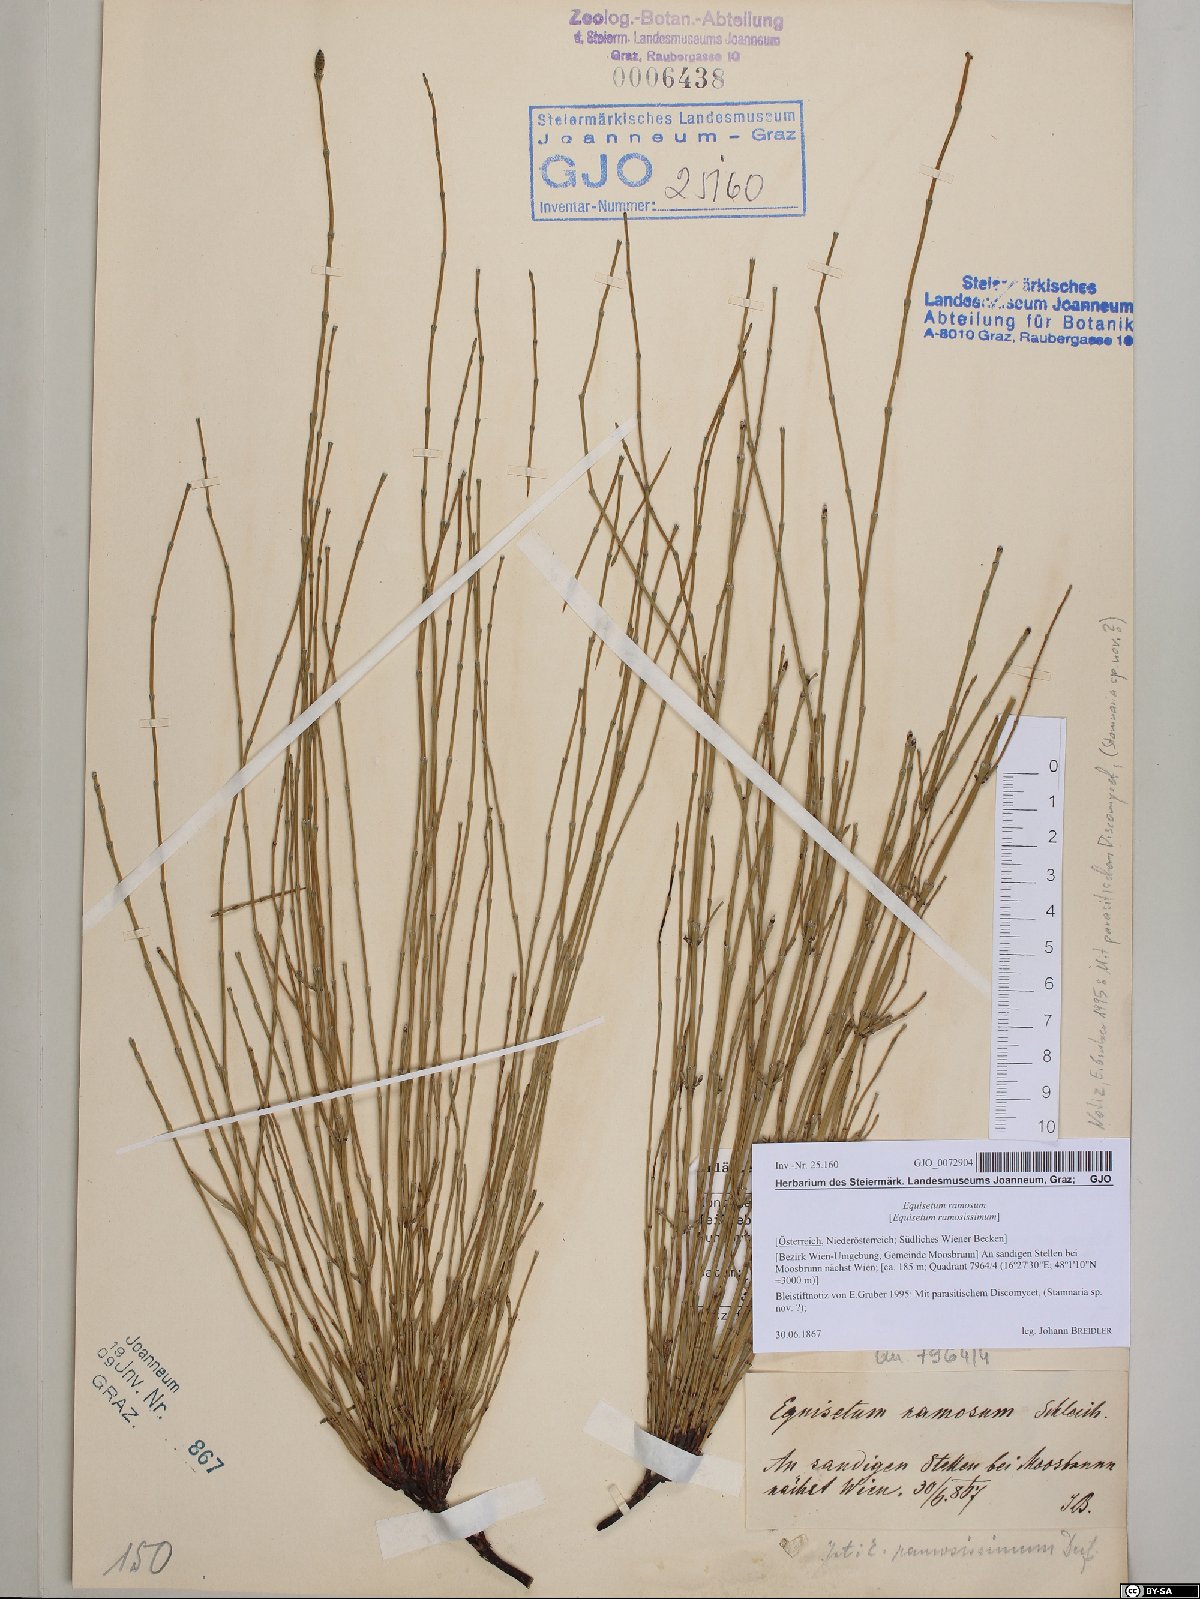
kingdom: Plantae
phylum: Tracheophyta
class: Polypodiopsida
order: Equisetales
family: Equisetaceae
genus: Equisetum
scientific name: Equisetum ramosissimum
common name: Branched horsetail
